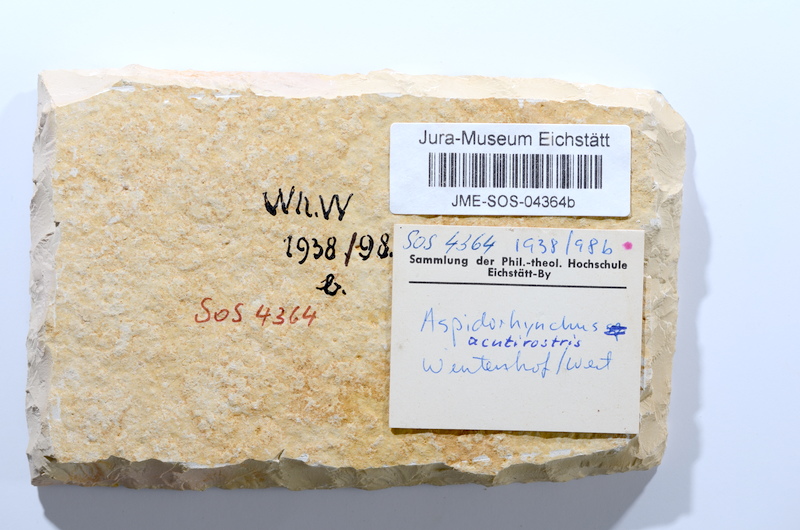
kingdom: Animalia
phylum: Chordata
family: Aspidorhynchidae
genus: Aspidorhynchus
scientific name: Aspidorhynchus acutirostris
